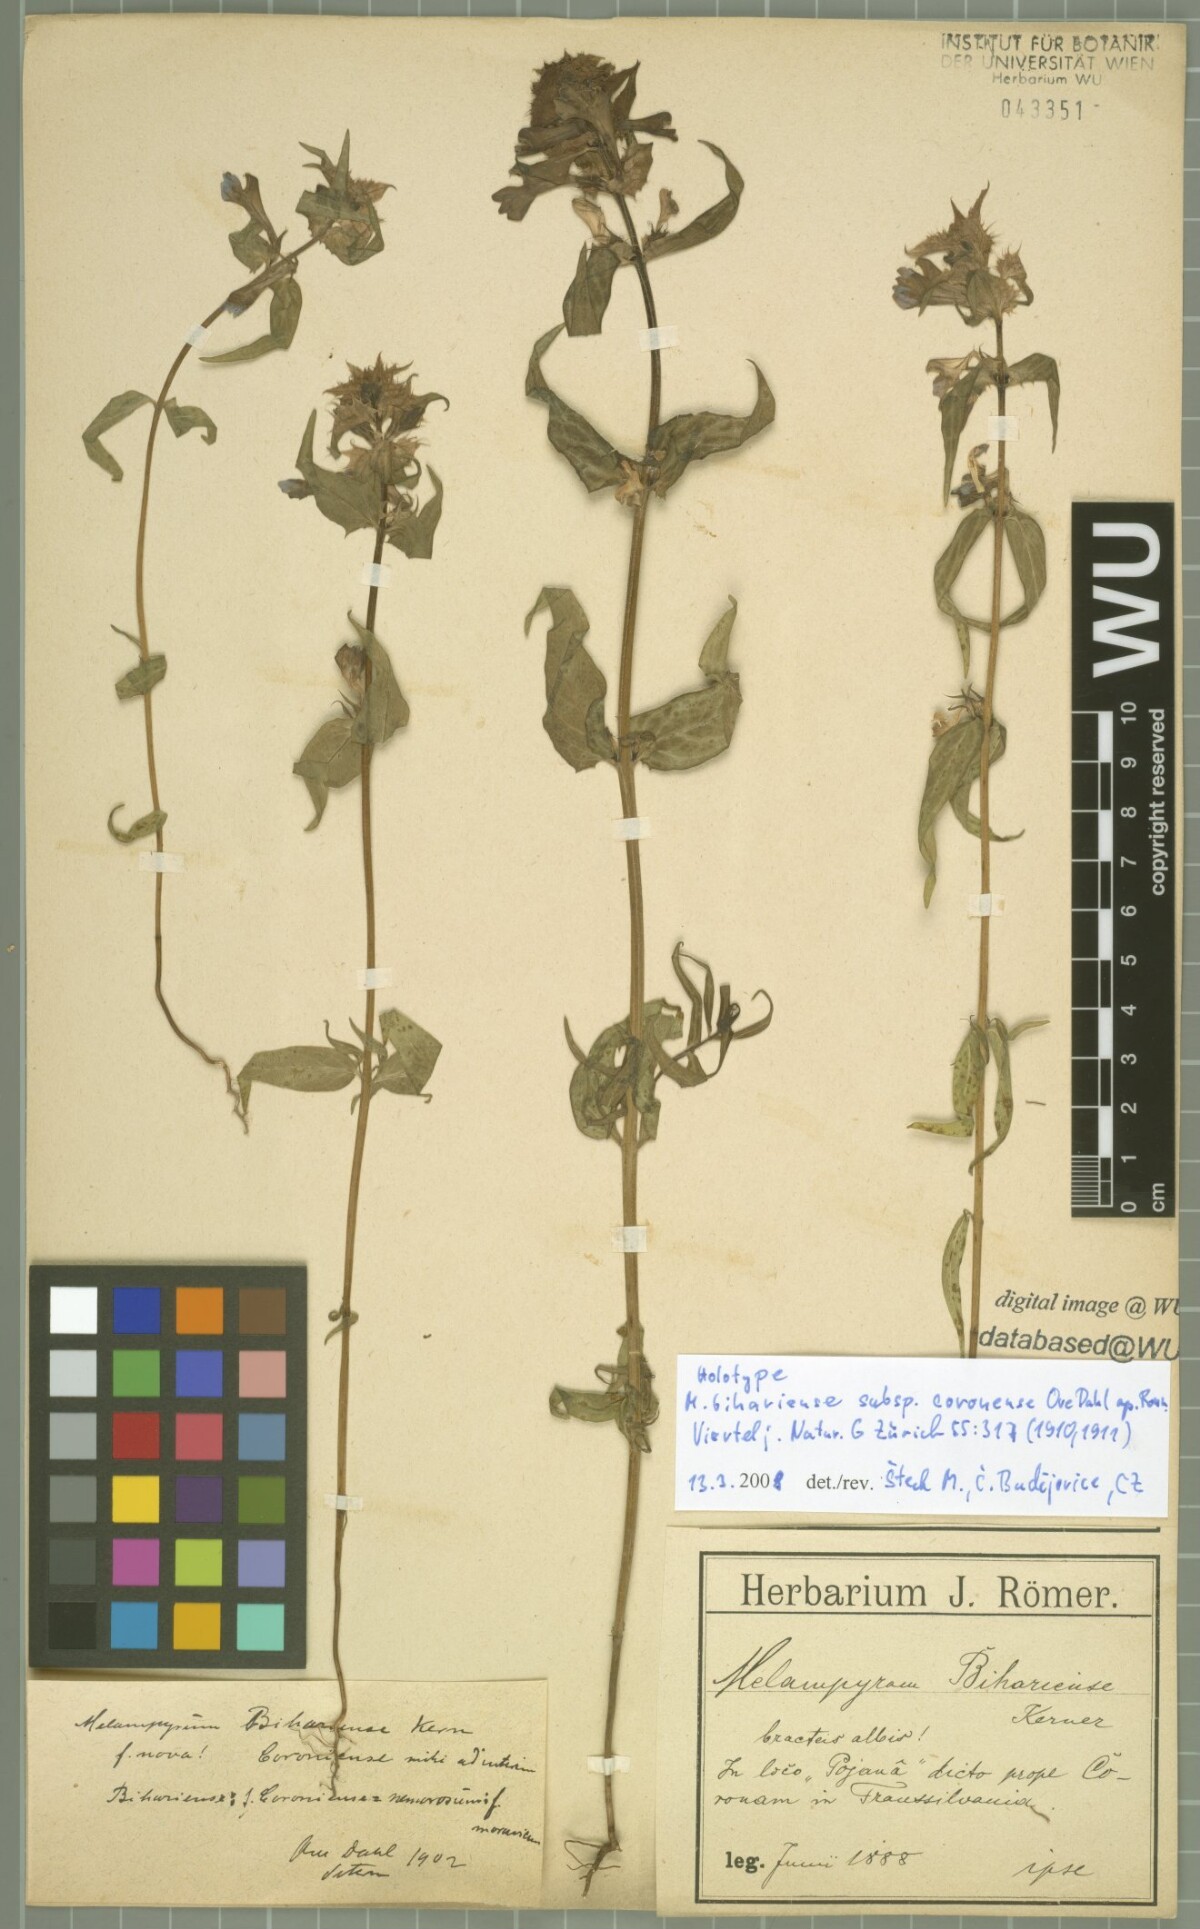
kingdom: Plantae
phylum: Tracheophyta
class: Magnoliopsida
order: Lamiales
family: Orobanchaceae
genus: Melampyrum
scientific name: Melampyrum bihariense
